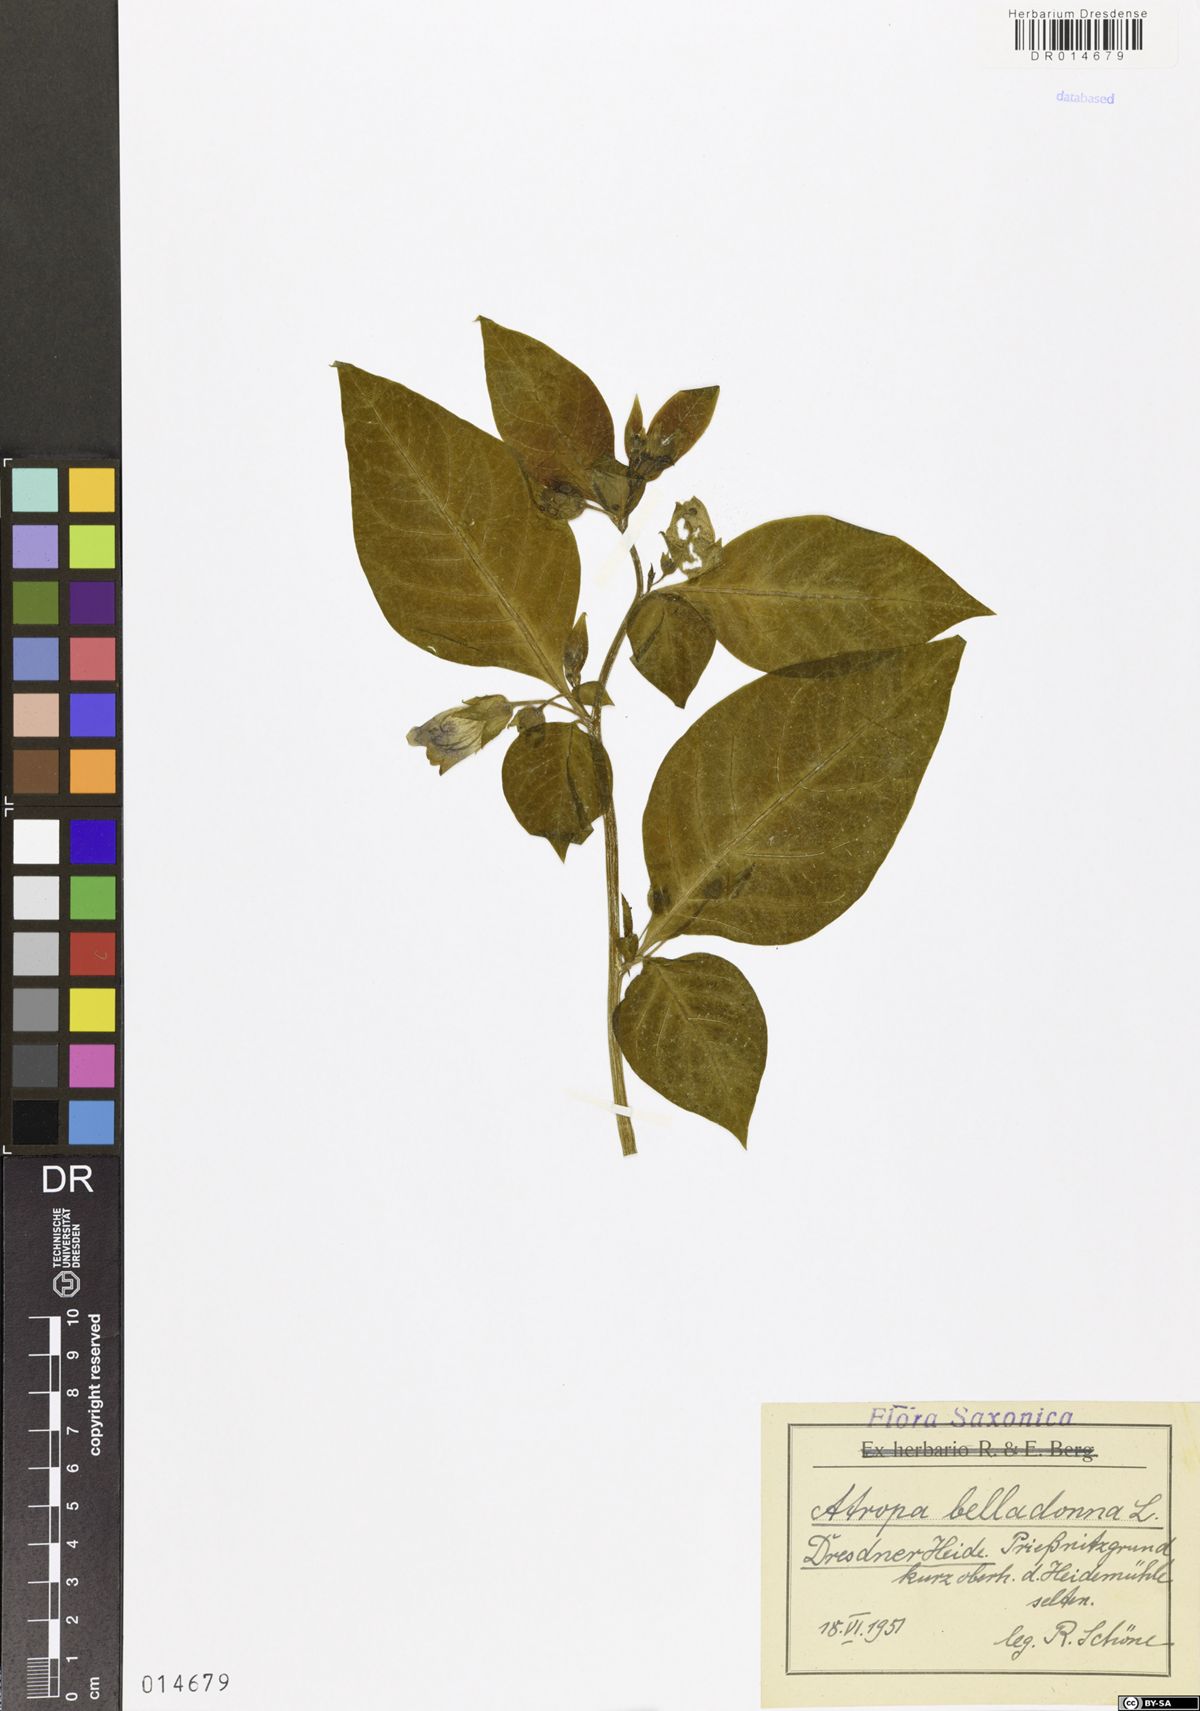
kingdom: Plantae
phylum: Tracheophyta
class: Magnoliopsida
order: Solanales
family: Solanaceae
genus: Atropa
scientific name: Atropa belladonna
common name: Deadly nightshade
